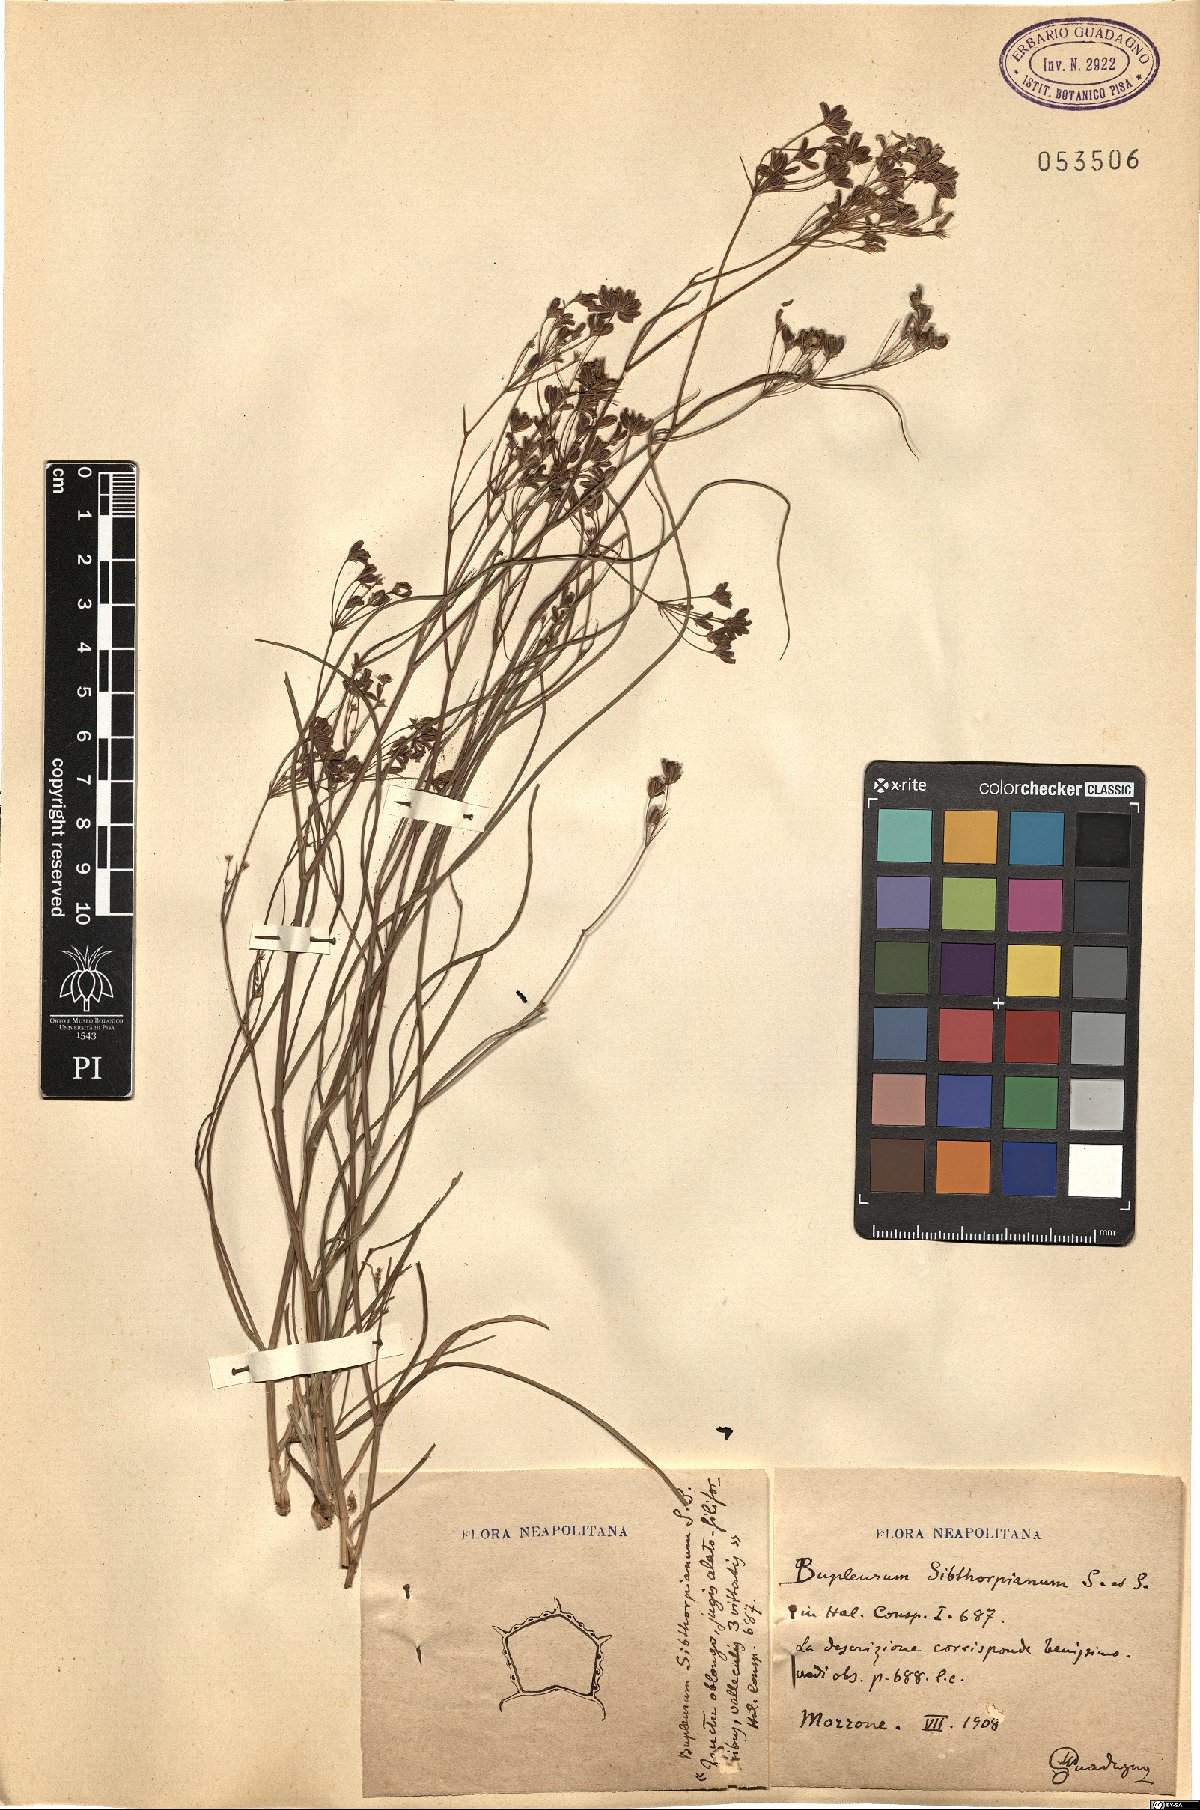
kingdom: Plantae
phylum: Tracheophyta
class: Magnoliopsida
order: Apiales
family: Apiaceae
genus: Bupleurum
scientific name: Bupleurum falcatum
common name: Sickle-leaved hare's-ear
